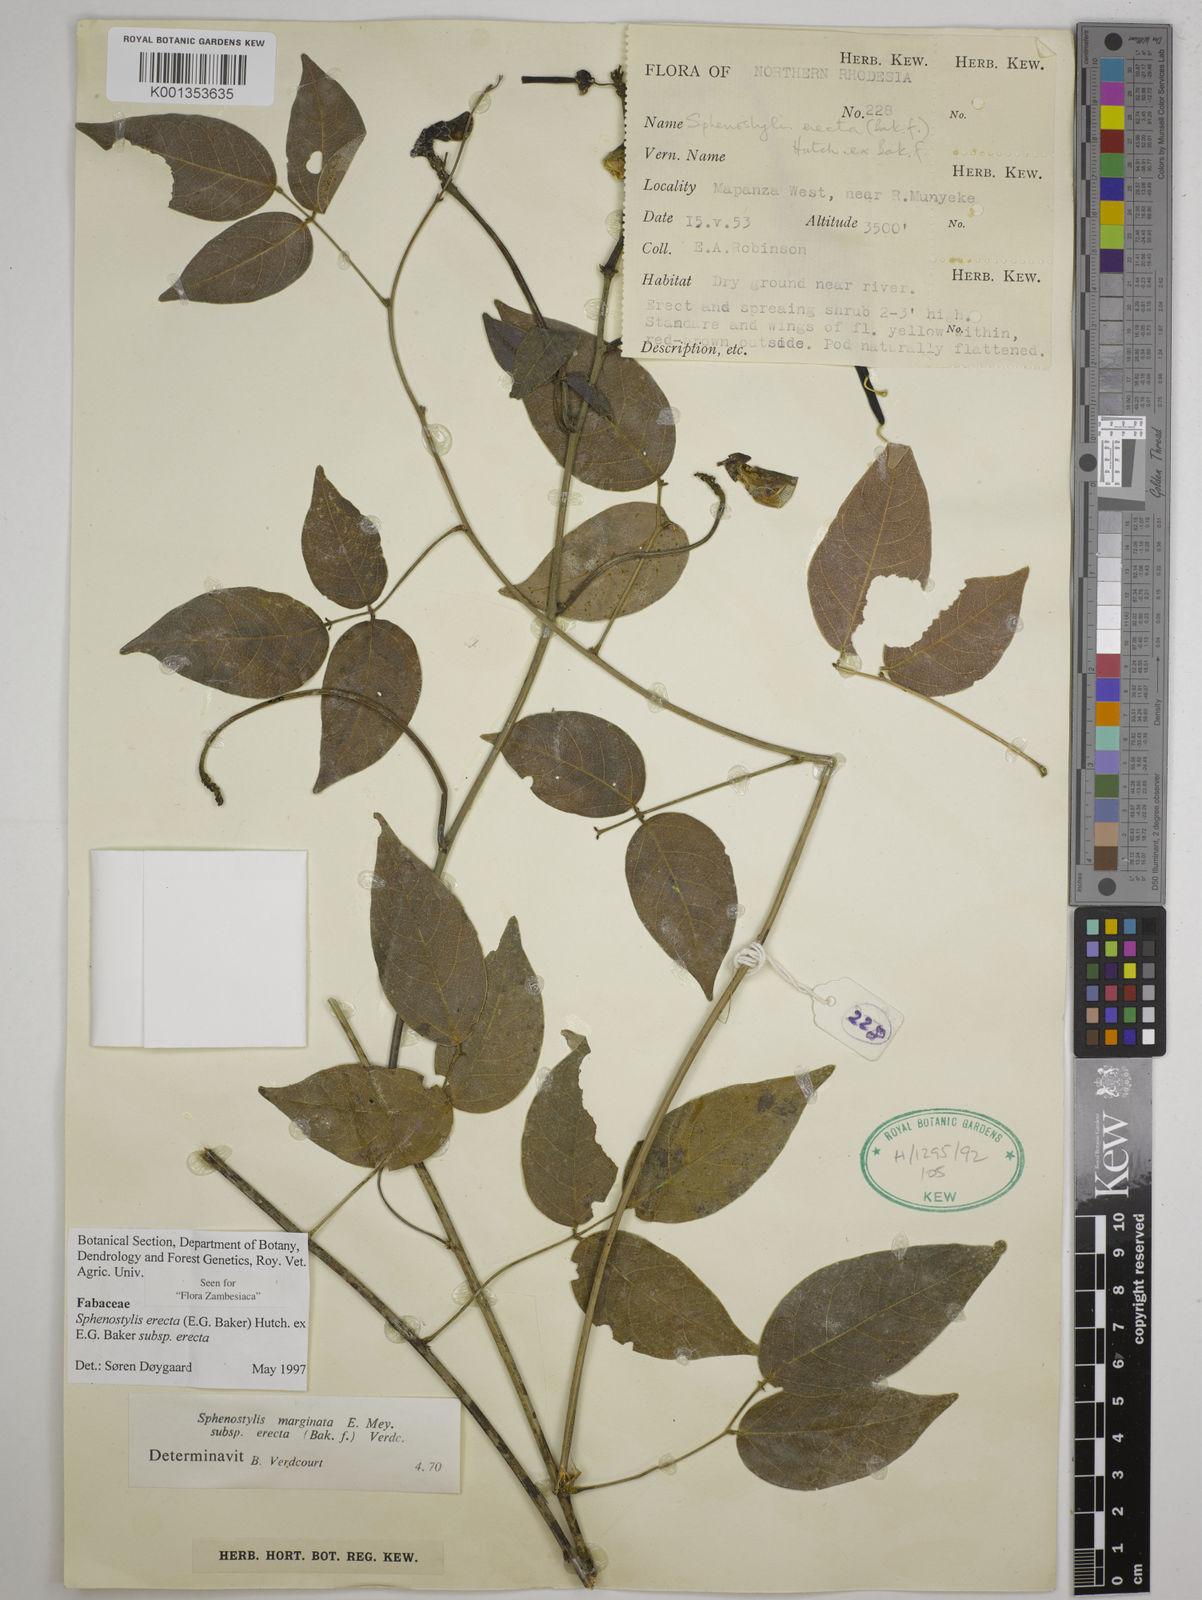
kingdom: Plantae
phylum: Tracheophyta
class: Magnoliopsida
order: Fabales
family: Fabaceae
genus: Sphenostylis
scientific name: Sphenostylis erecta
